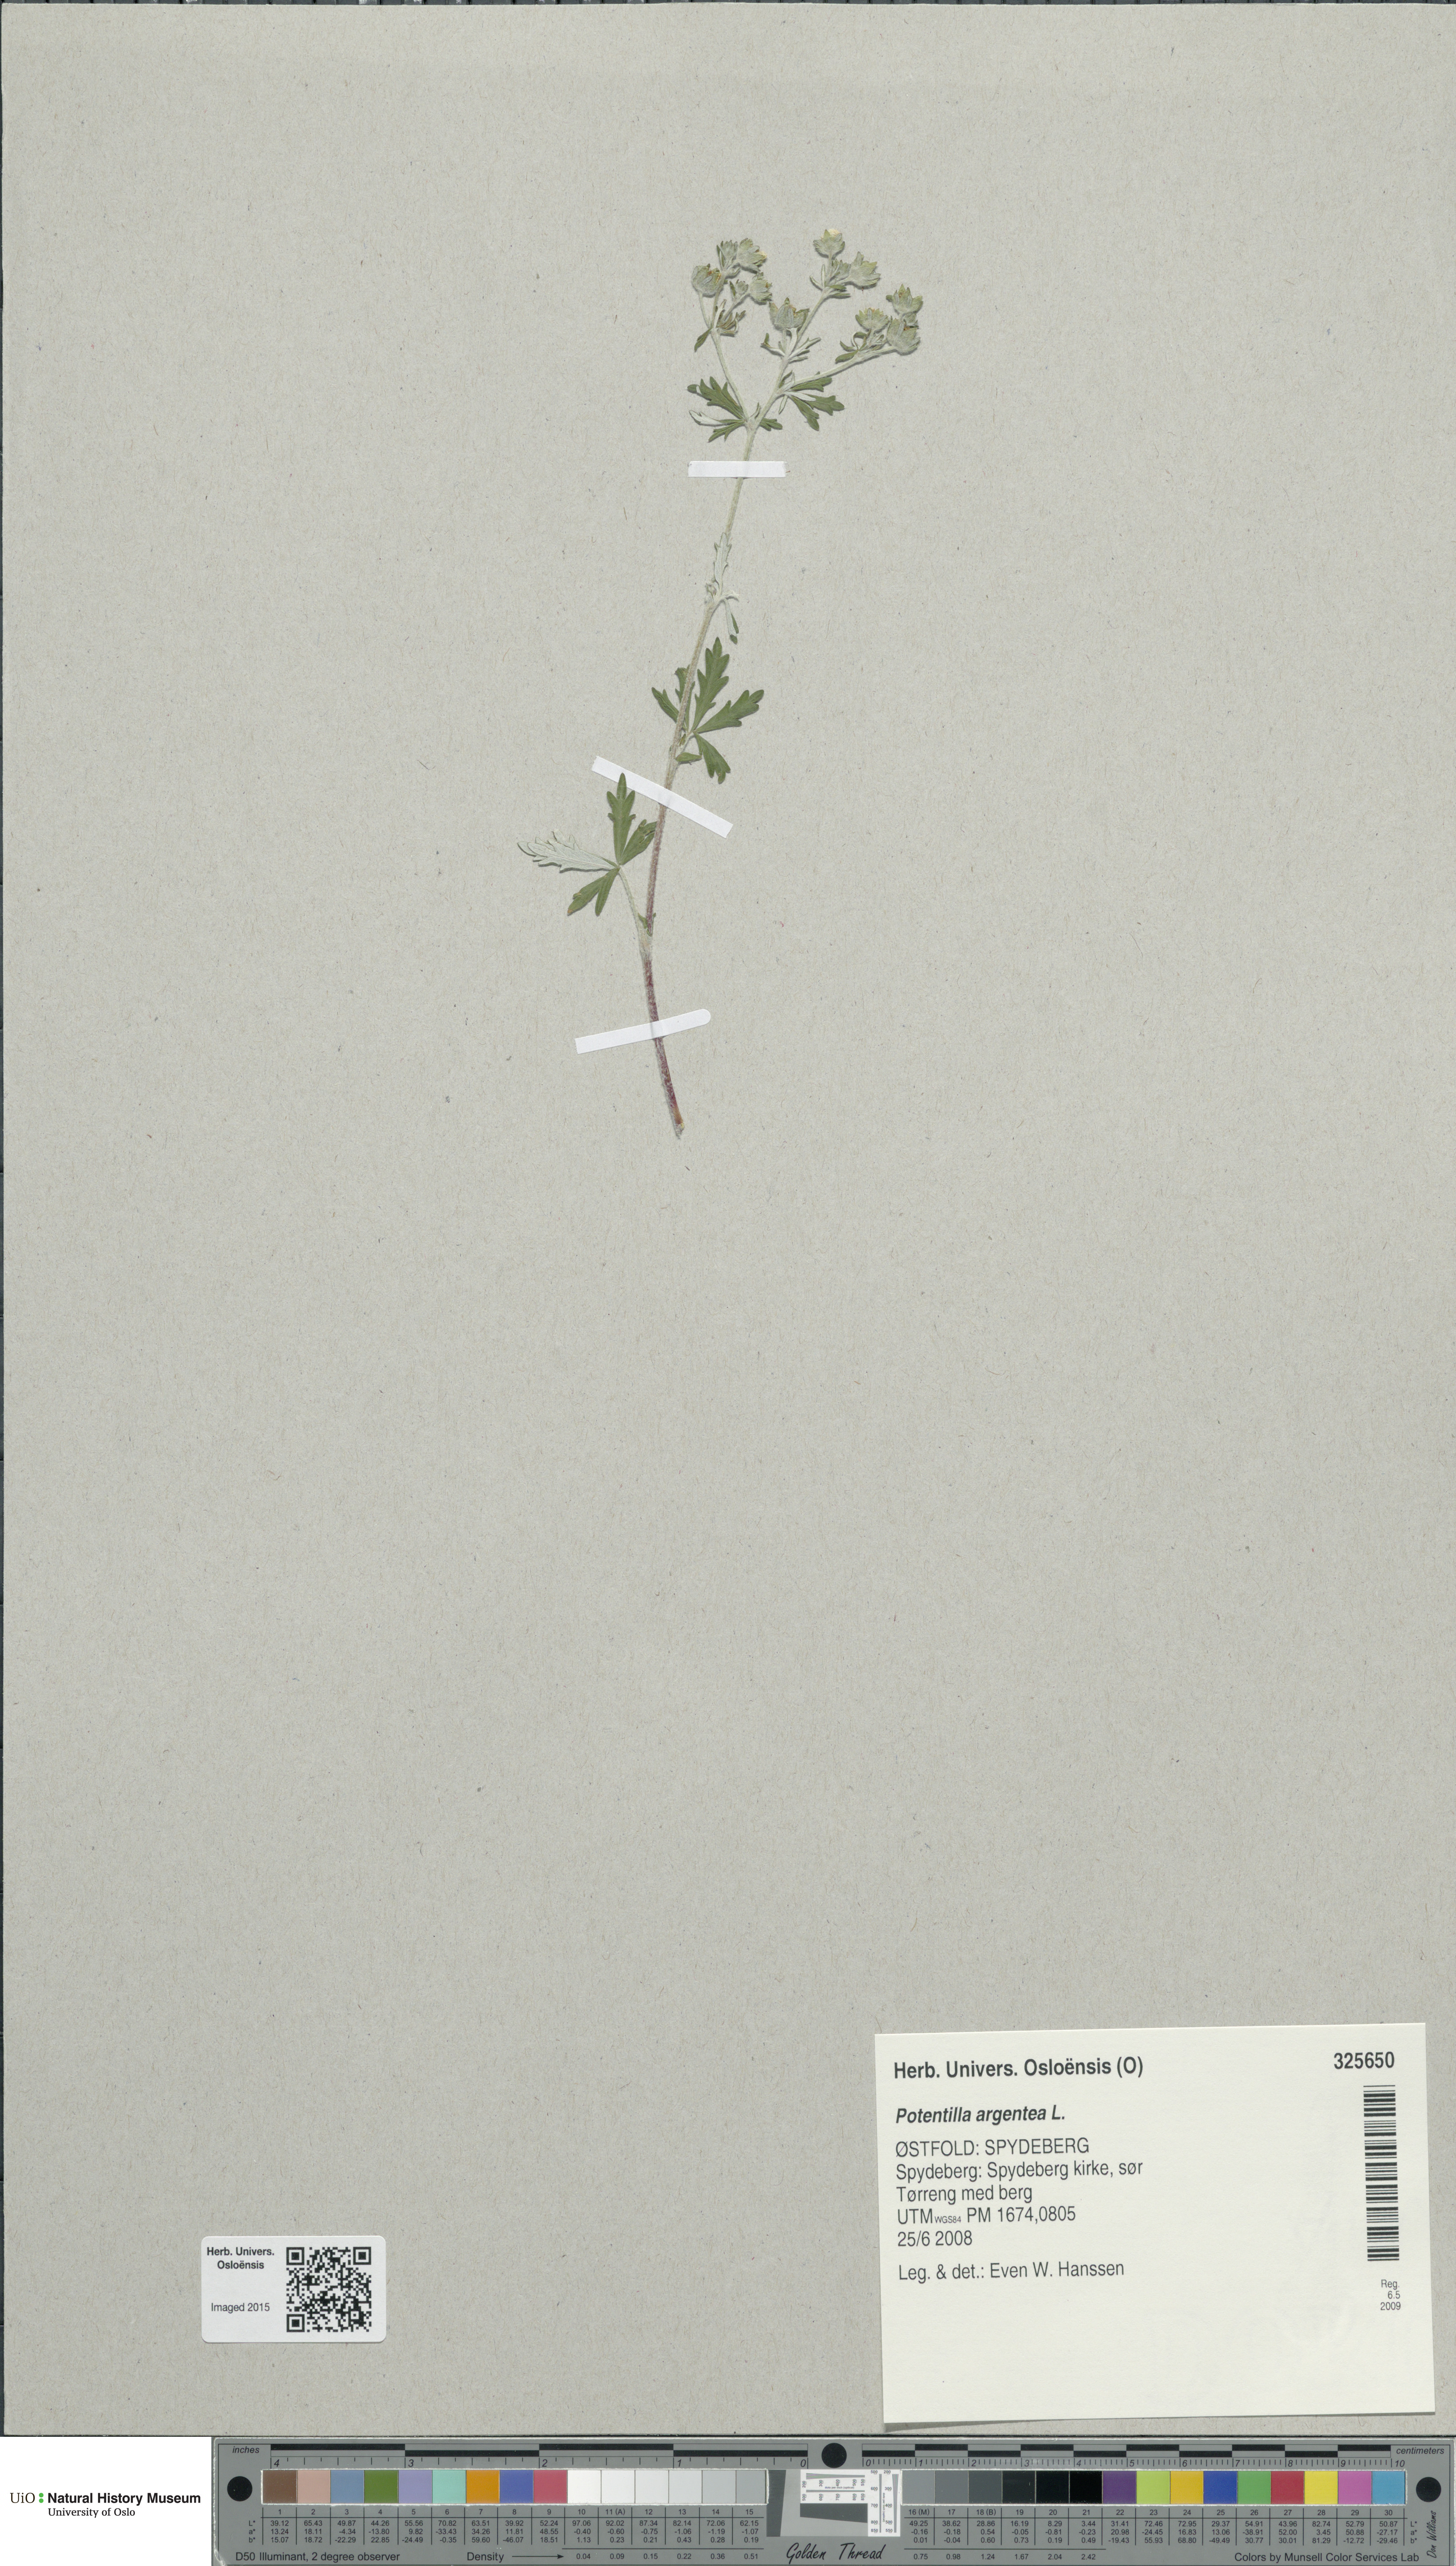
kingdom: Plantae
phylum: Tracheophyta
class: Magnoliopsida
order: Rosales
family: Rosaceae
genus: Potentilla
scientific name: Potentilla argentea
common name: Hoary cinquefoil
